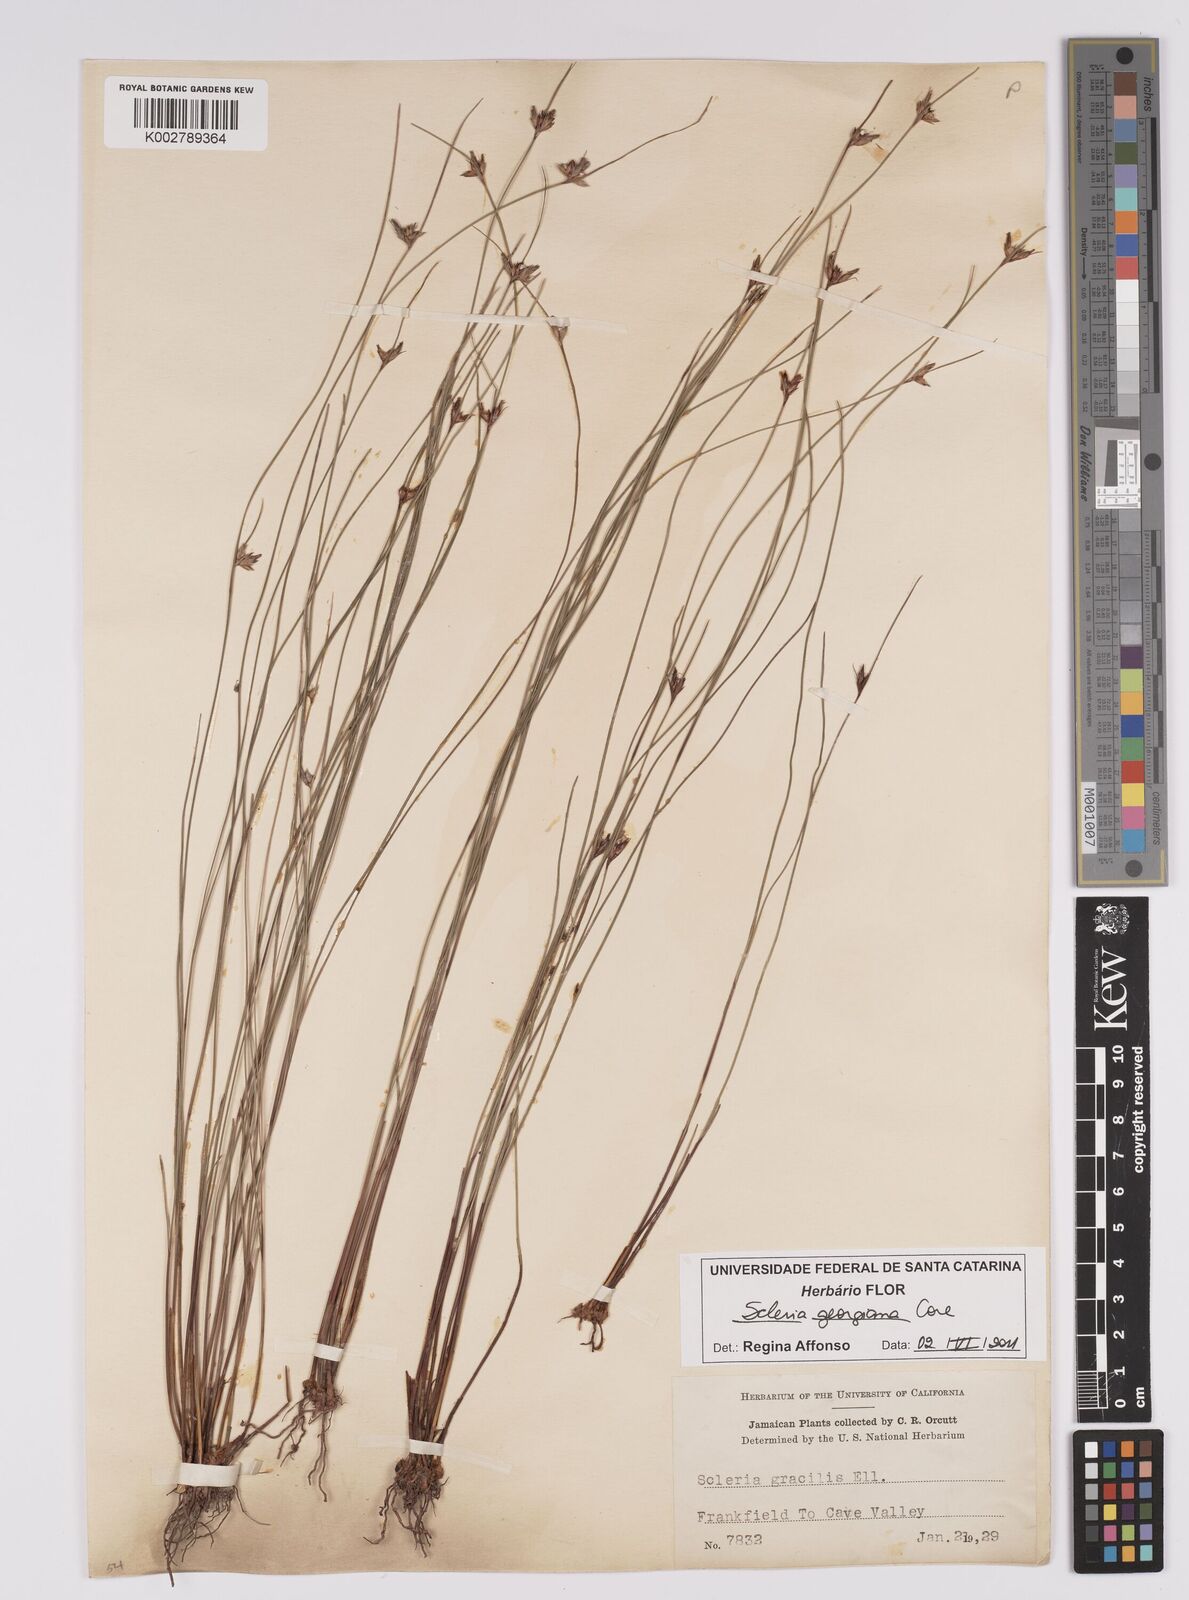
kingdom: Plantae
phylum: Tracheophyta
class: Liliopsida
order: Poales
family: Cyperaceae
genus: Scleria
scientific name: Scleria georgiana
